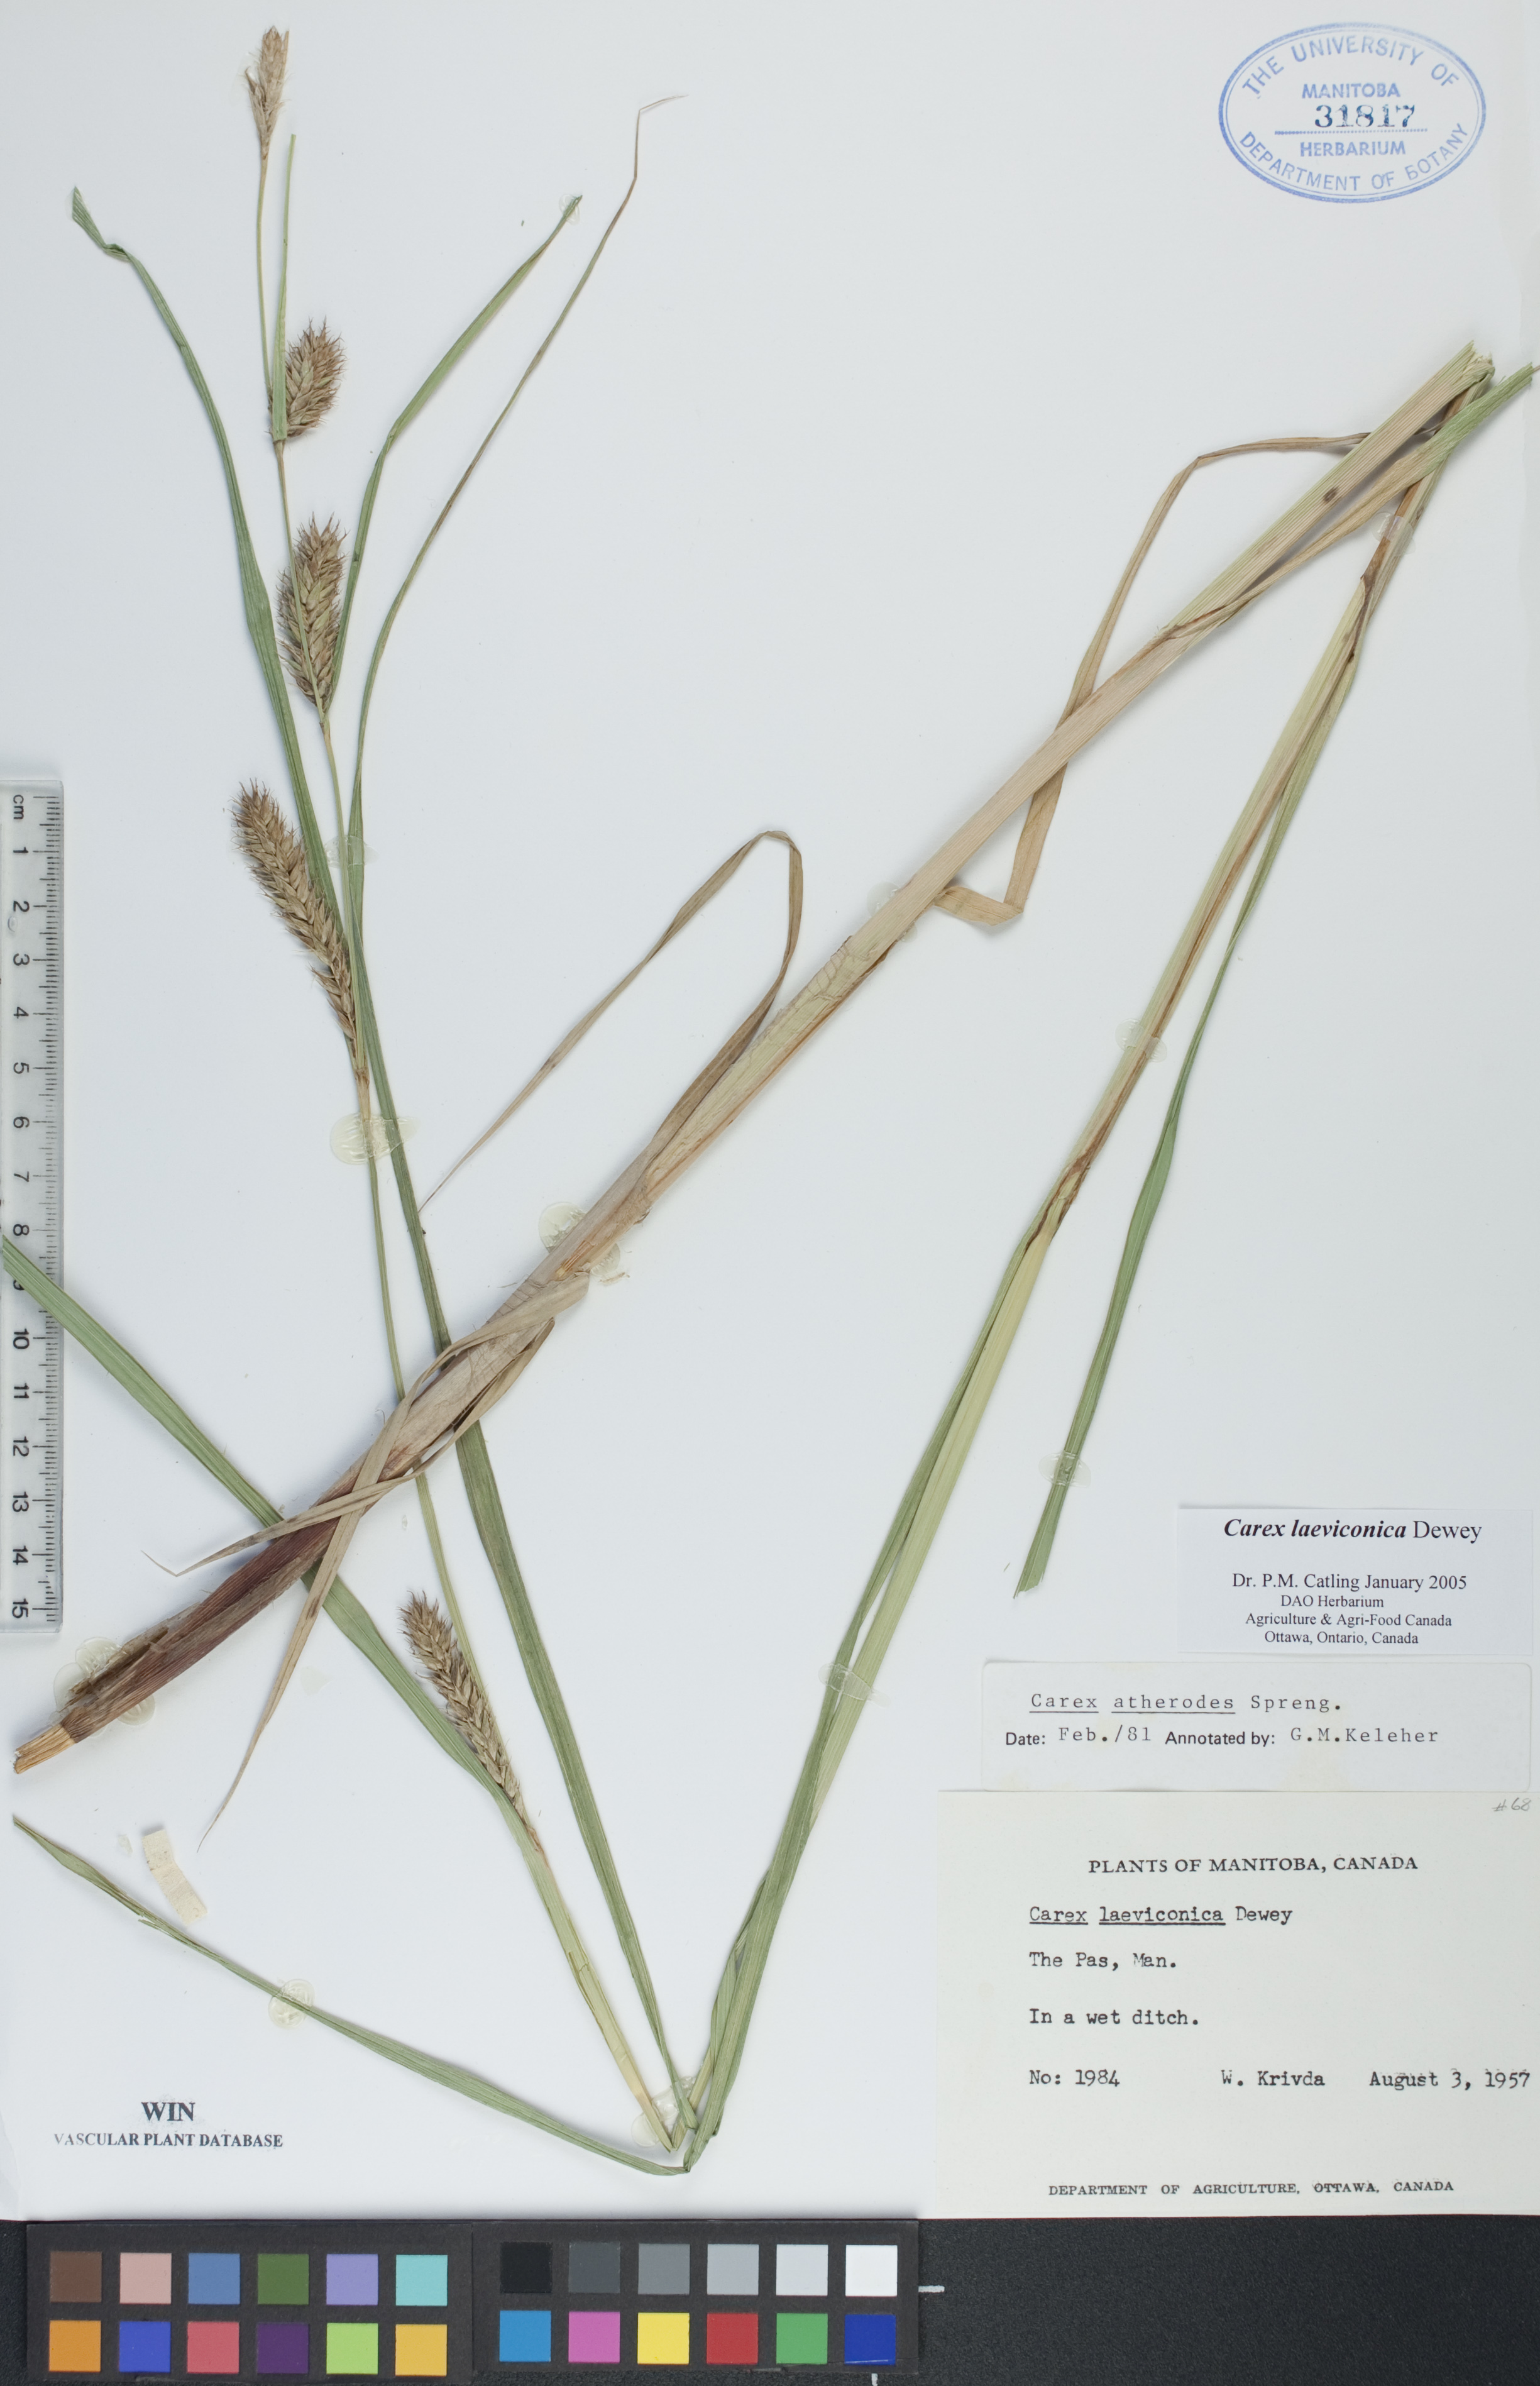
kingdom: Plantae
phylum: Tracheophyta
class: Liliopsida
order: Poales
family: Cyperaceae
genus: Carex
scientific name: Carex laeviconica
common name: Plains slough sedge
